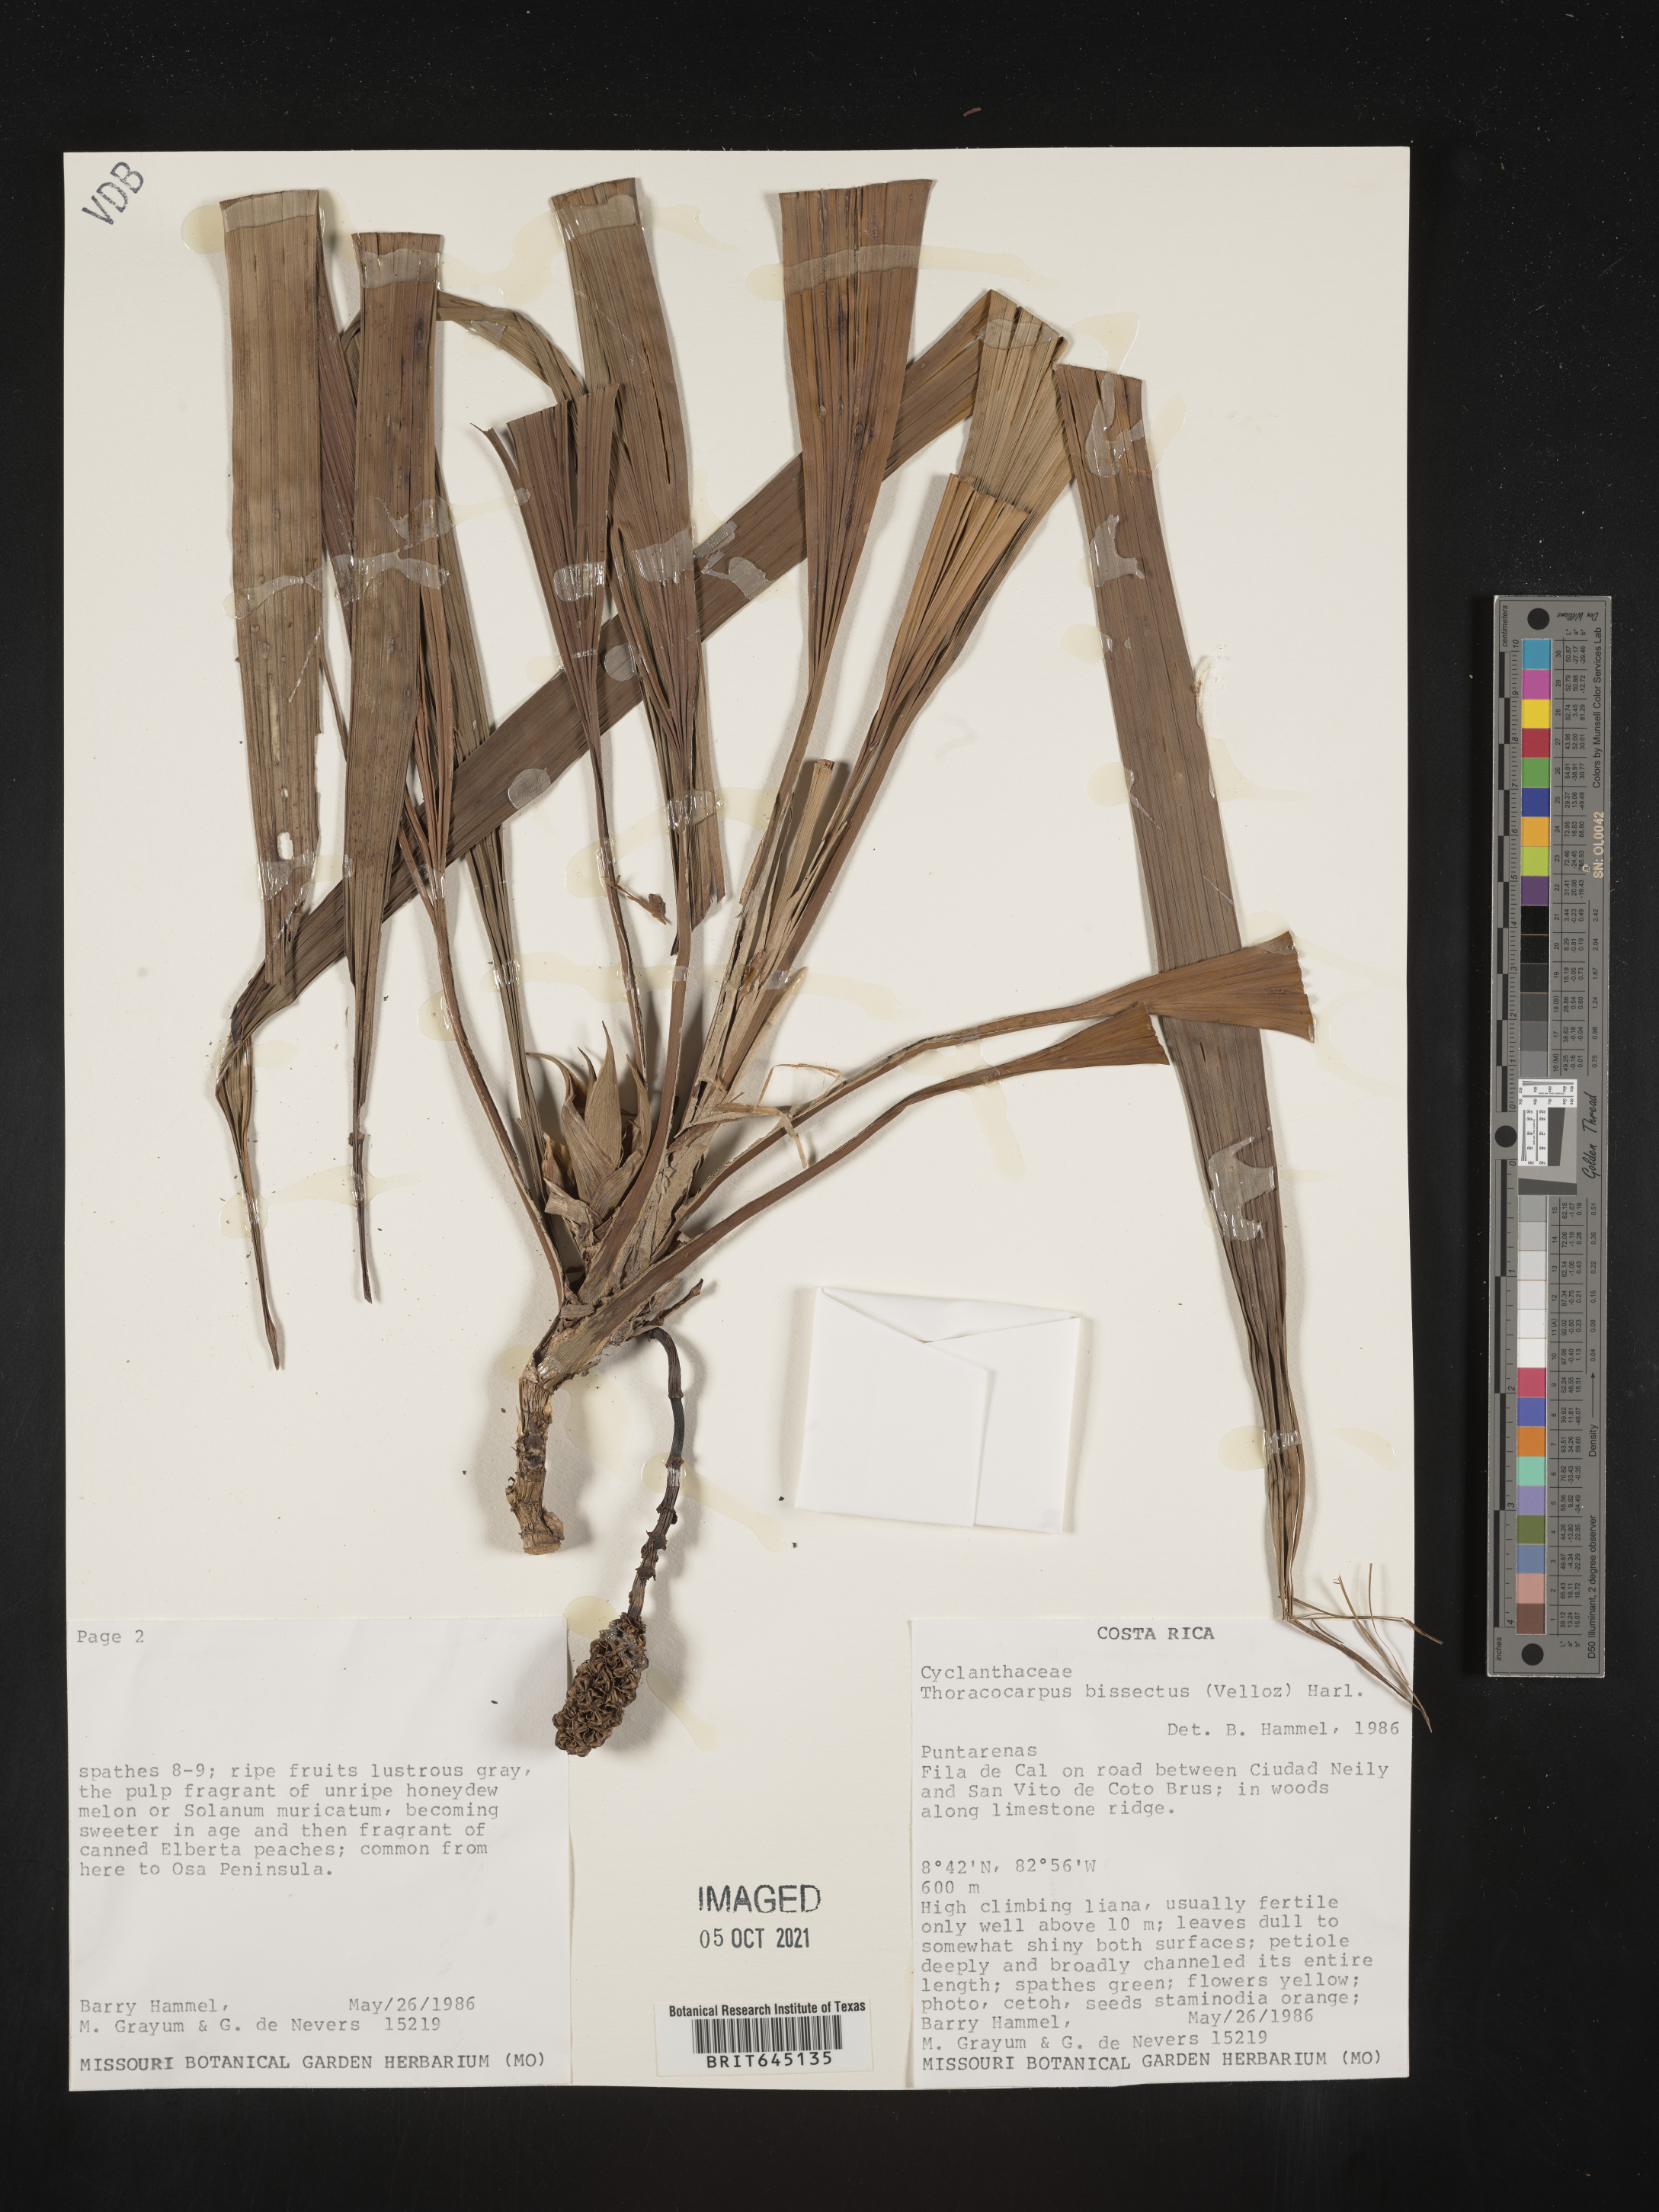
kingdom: Plantae
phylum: Tracheophyta
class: Liliopsida
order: Pandanales
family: Cyclanthaceae
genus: Thoracocarpus
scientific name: Thoracocarpus bissectus
